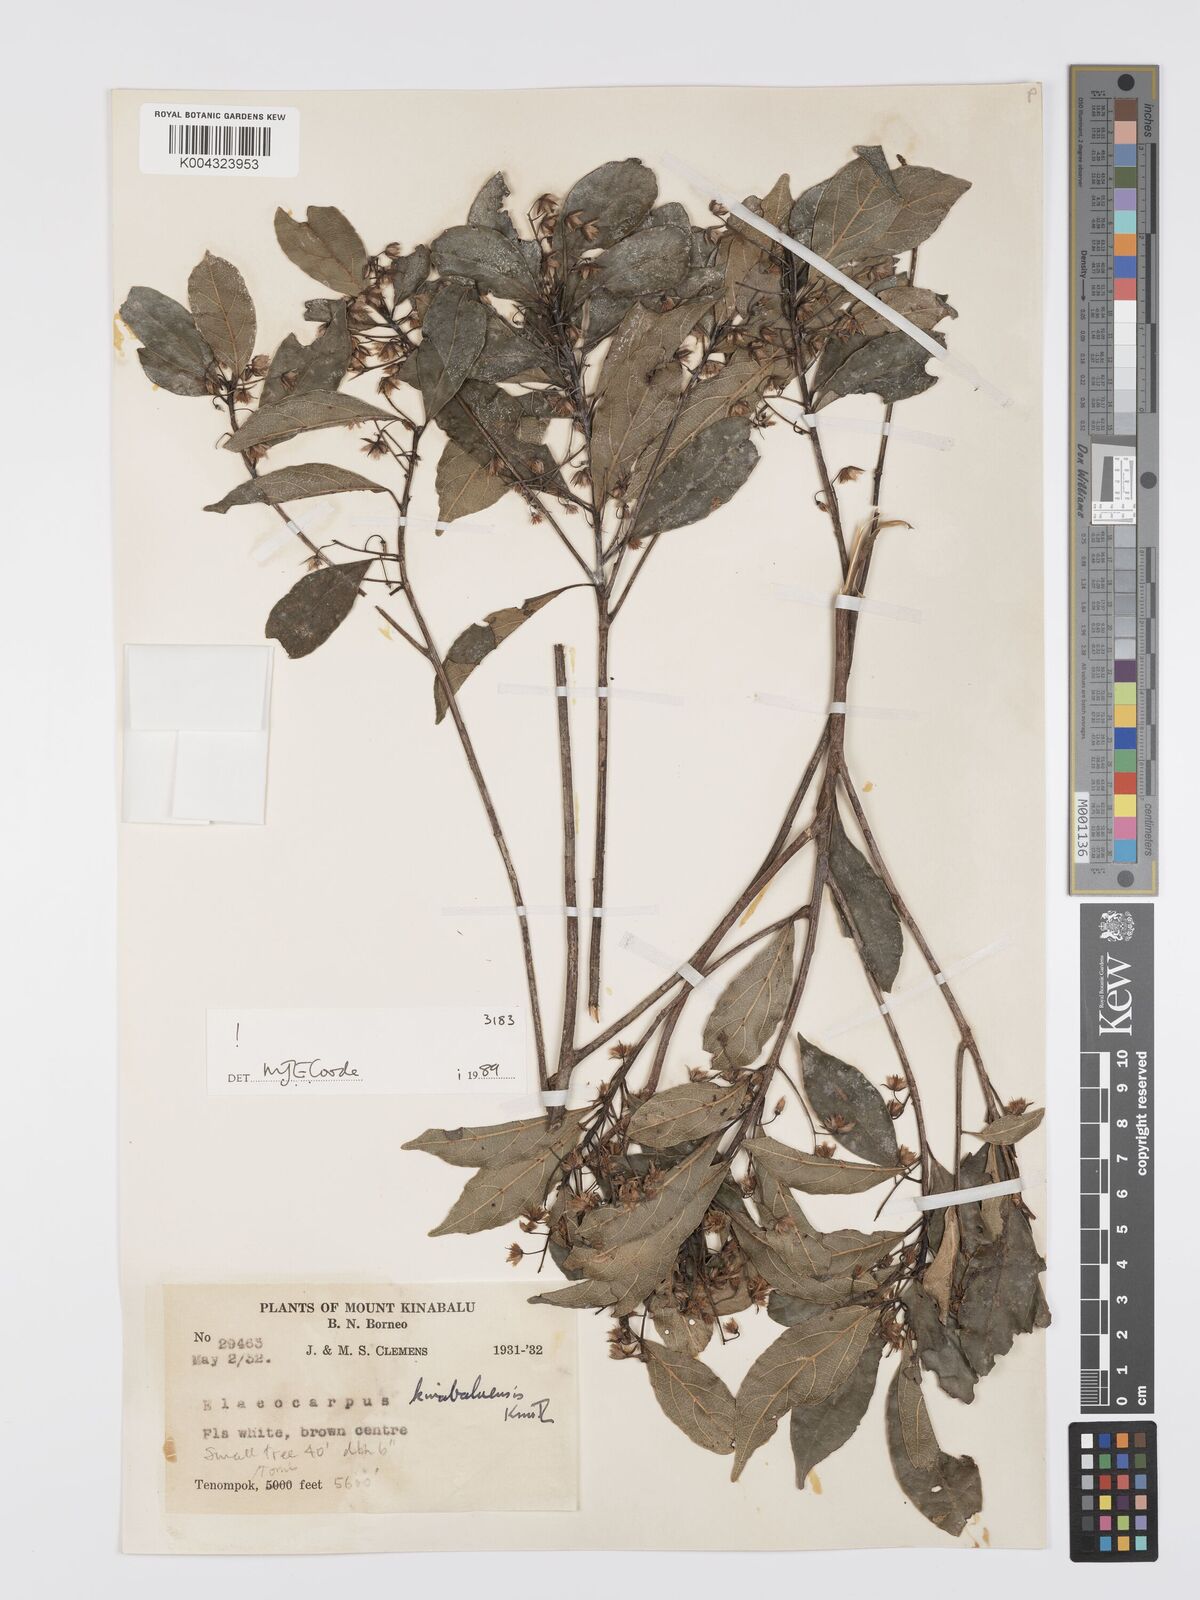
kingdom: Plantae
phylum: Tracheophyta
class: Magnoliopsida
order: Oxalidales
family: Elaeocarpaceae
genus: Elaeocarpus
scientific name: Elaeocarpus kinabaluensis
